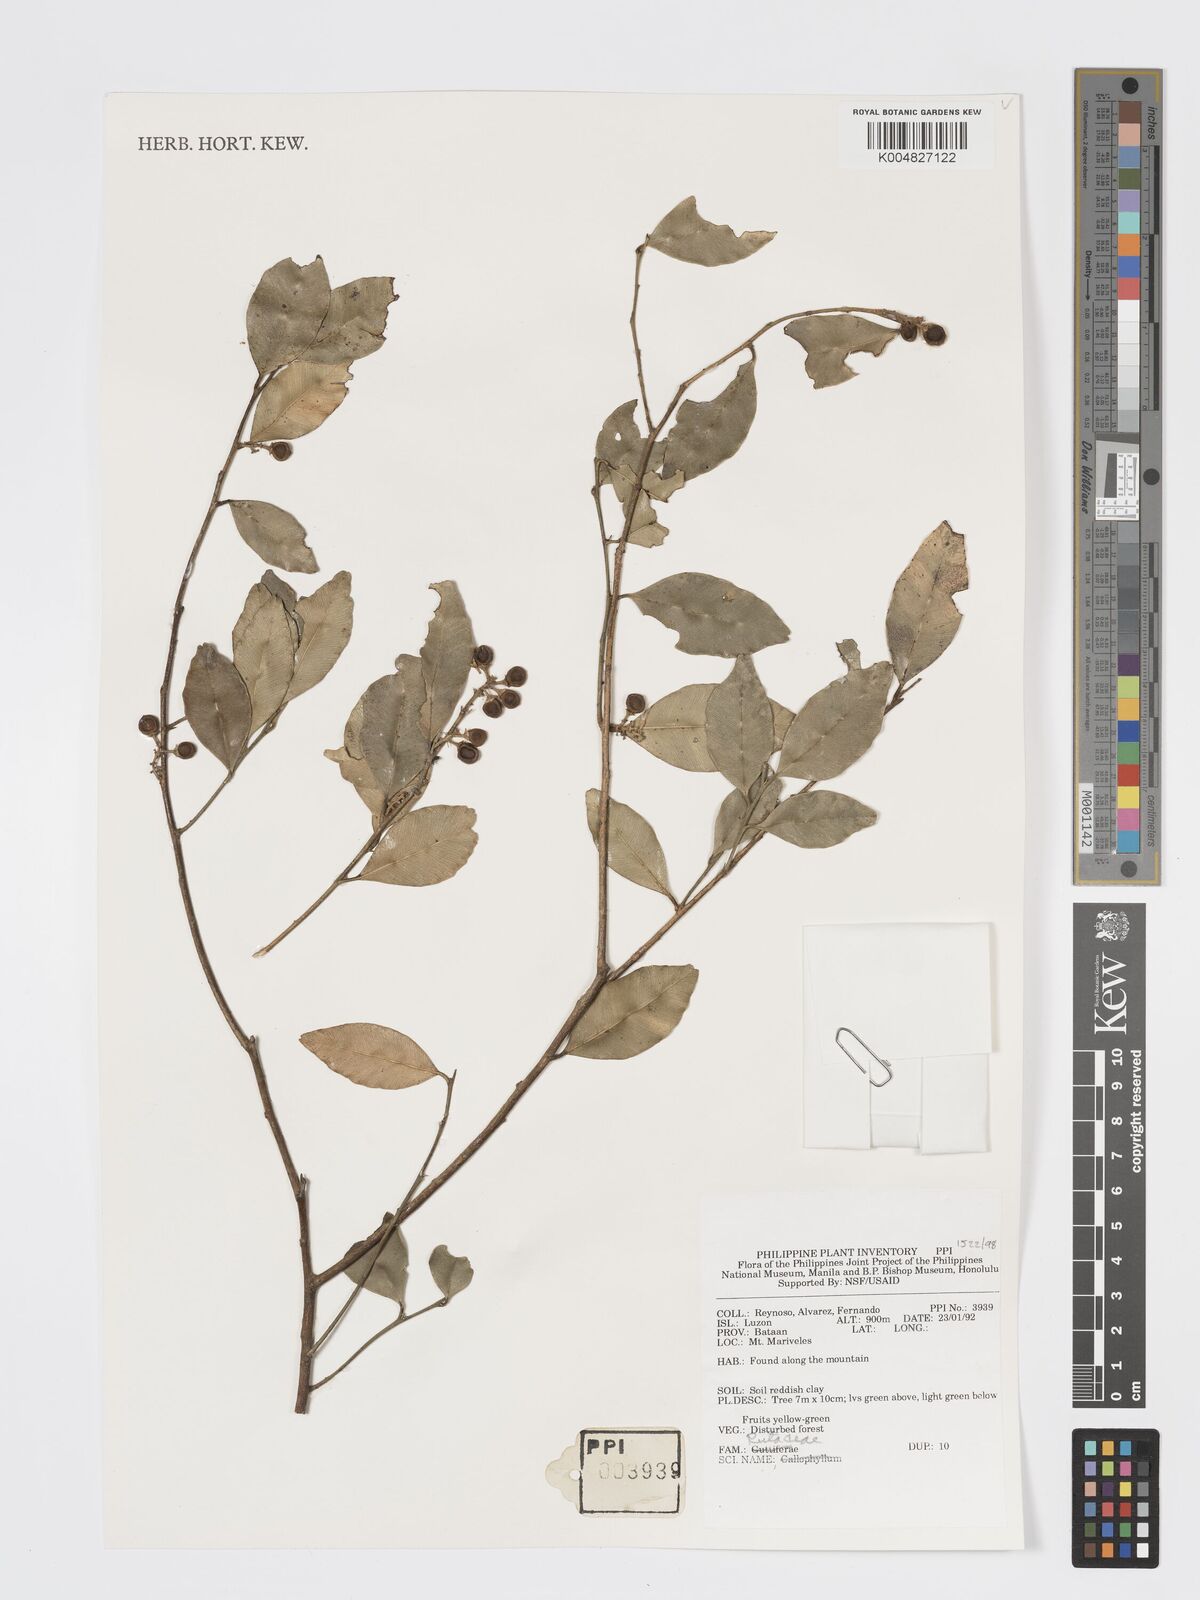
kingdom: Plantae
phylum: Tracheophyta
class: Magnoliopsida
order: Sapindales
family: Rutaceae
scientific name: Rutaceae
